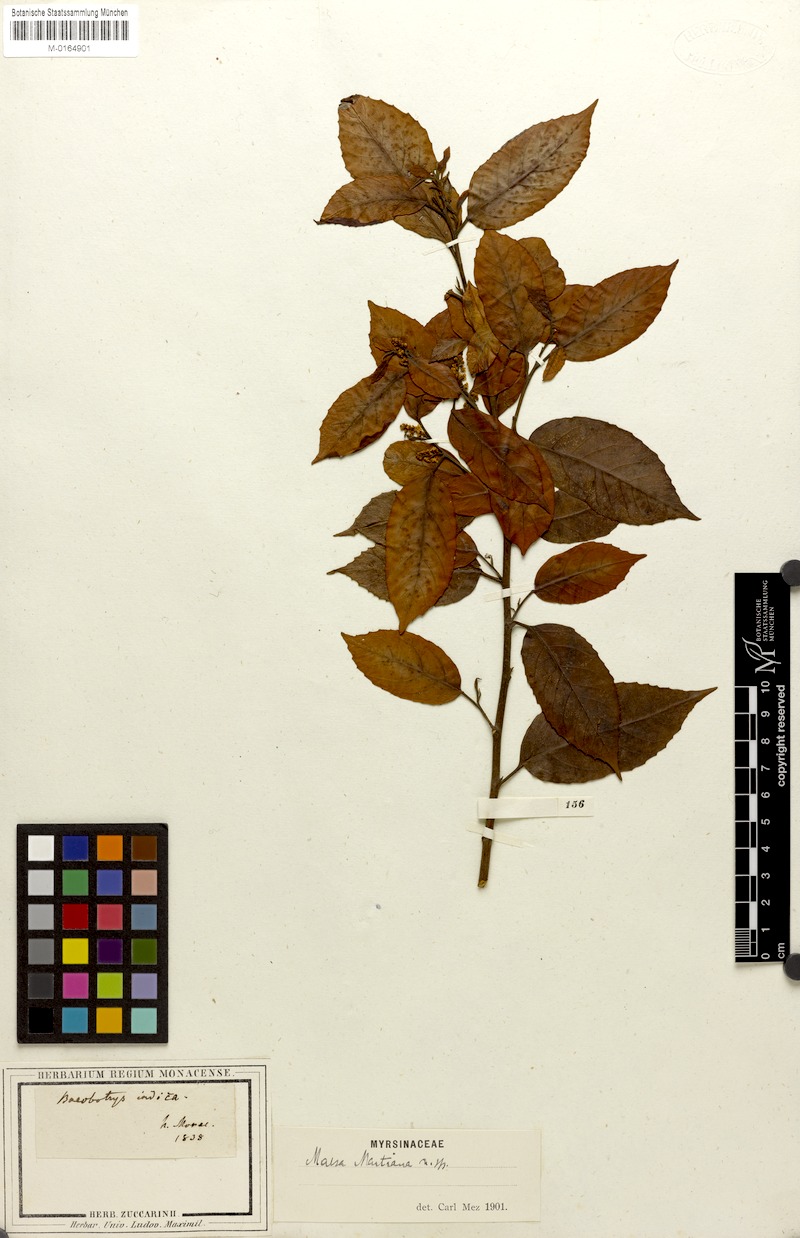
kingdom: Plantae
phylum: Tracheophyta
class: Magnoliopsida
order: Ericales
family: Primulaceae
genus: Maesa
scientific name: Maesa martiana
